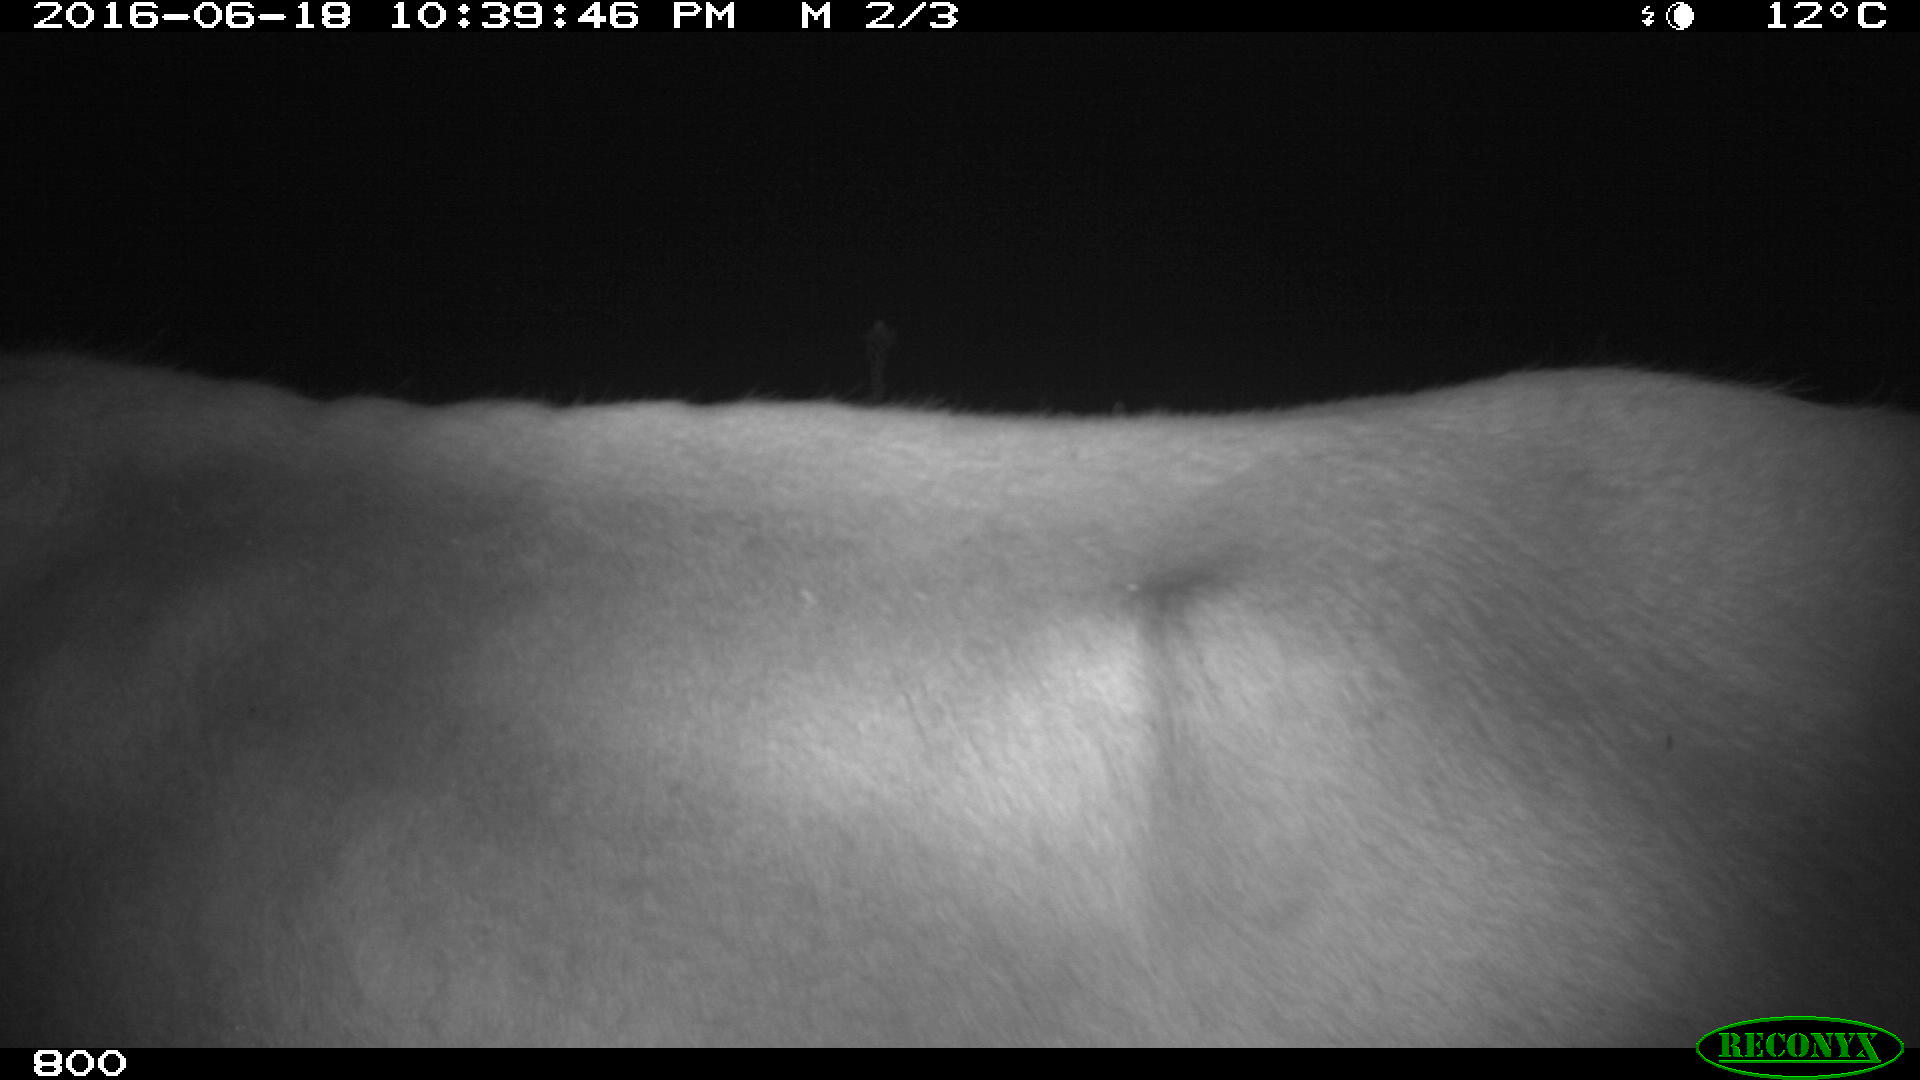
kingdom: Animalia
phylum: Chordata
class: Mammalia
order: Artiodactyla
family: Bovidae
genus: Bos
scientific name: Bos taurus
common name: Domesticated cattle
